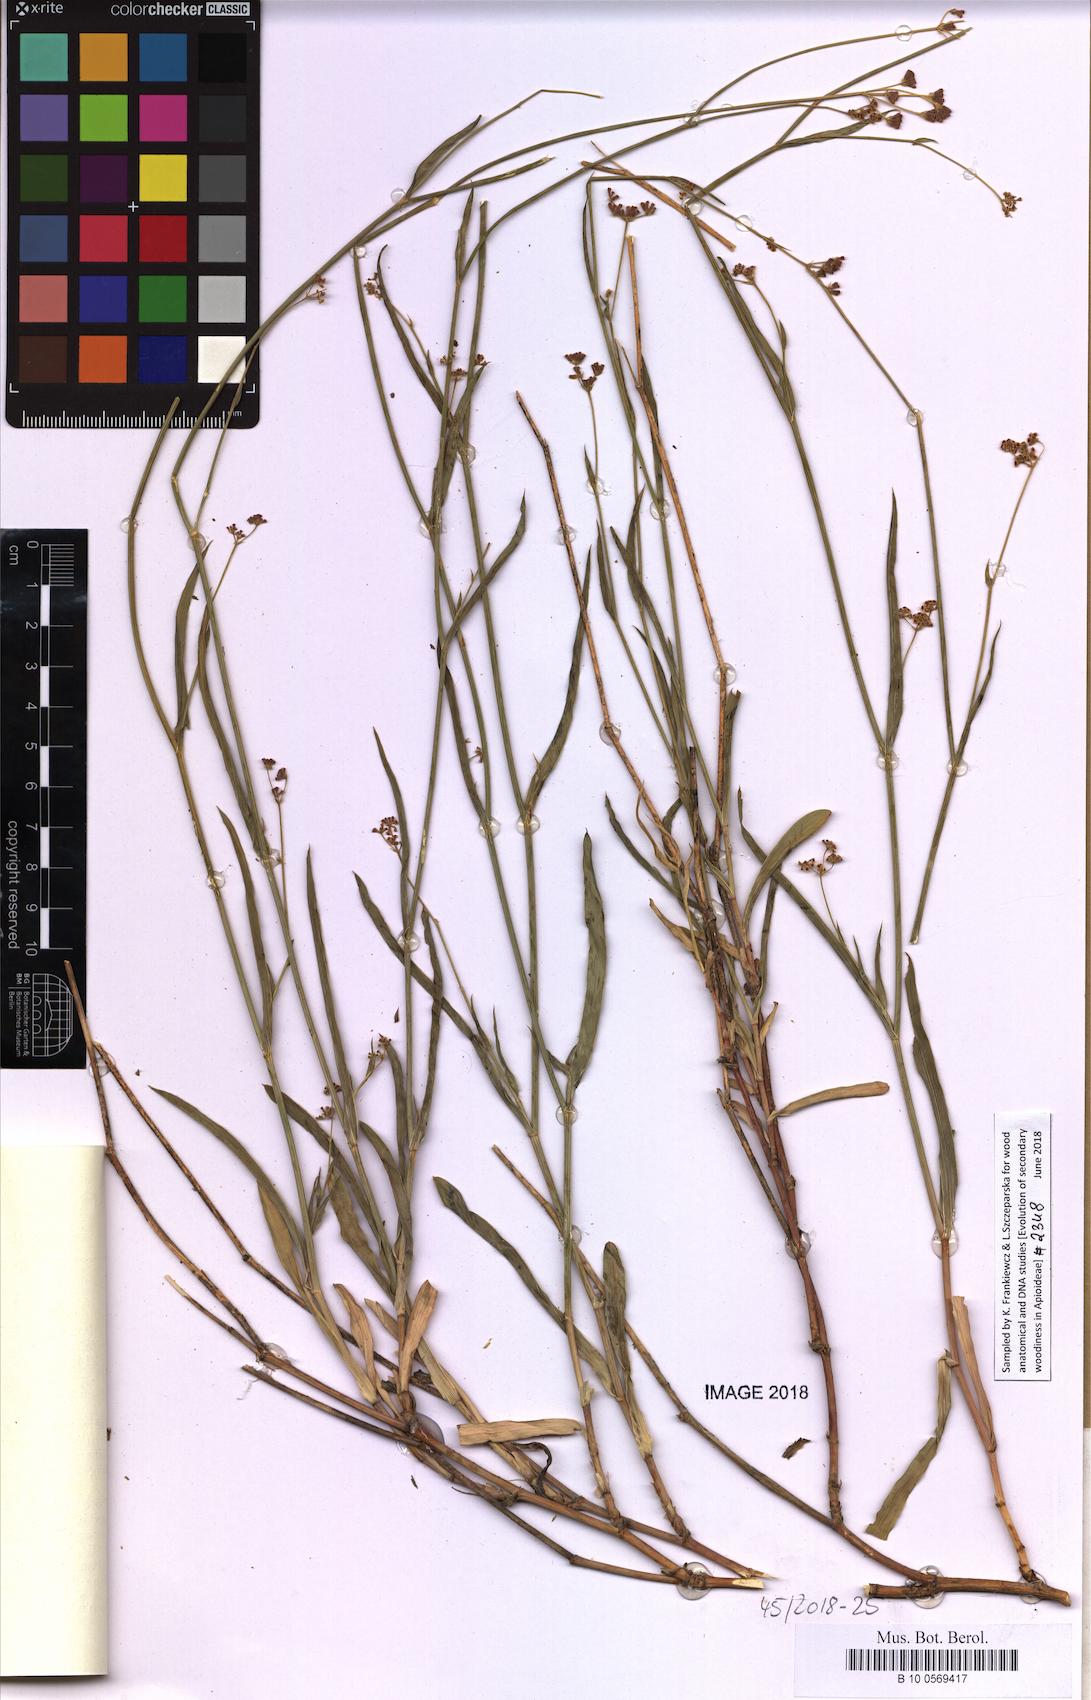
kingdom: Plantae
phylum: Tracheophyta
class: Magnoliopsida
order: Apiales
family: Apiaceae
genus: Bupleurum
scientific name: Bupleurum lipskyanum
